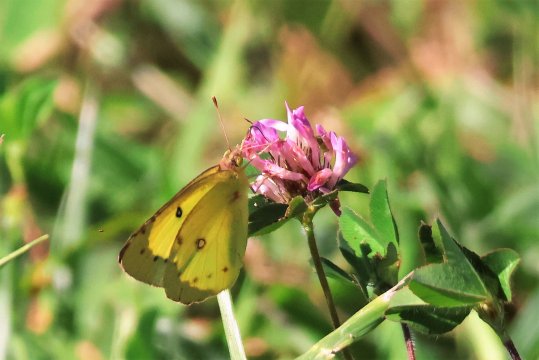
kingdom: Animalia
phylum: Arthropoda
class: Insecta
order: Lepidoptera
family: Pieridae
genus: Colias
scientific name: Colias eurytheme
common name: Orange Sulphur
